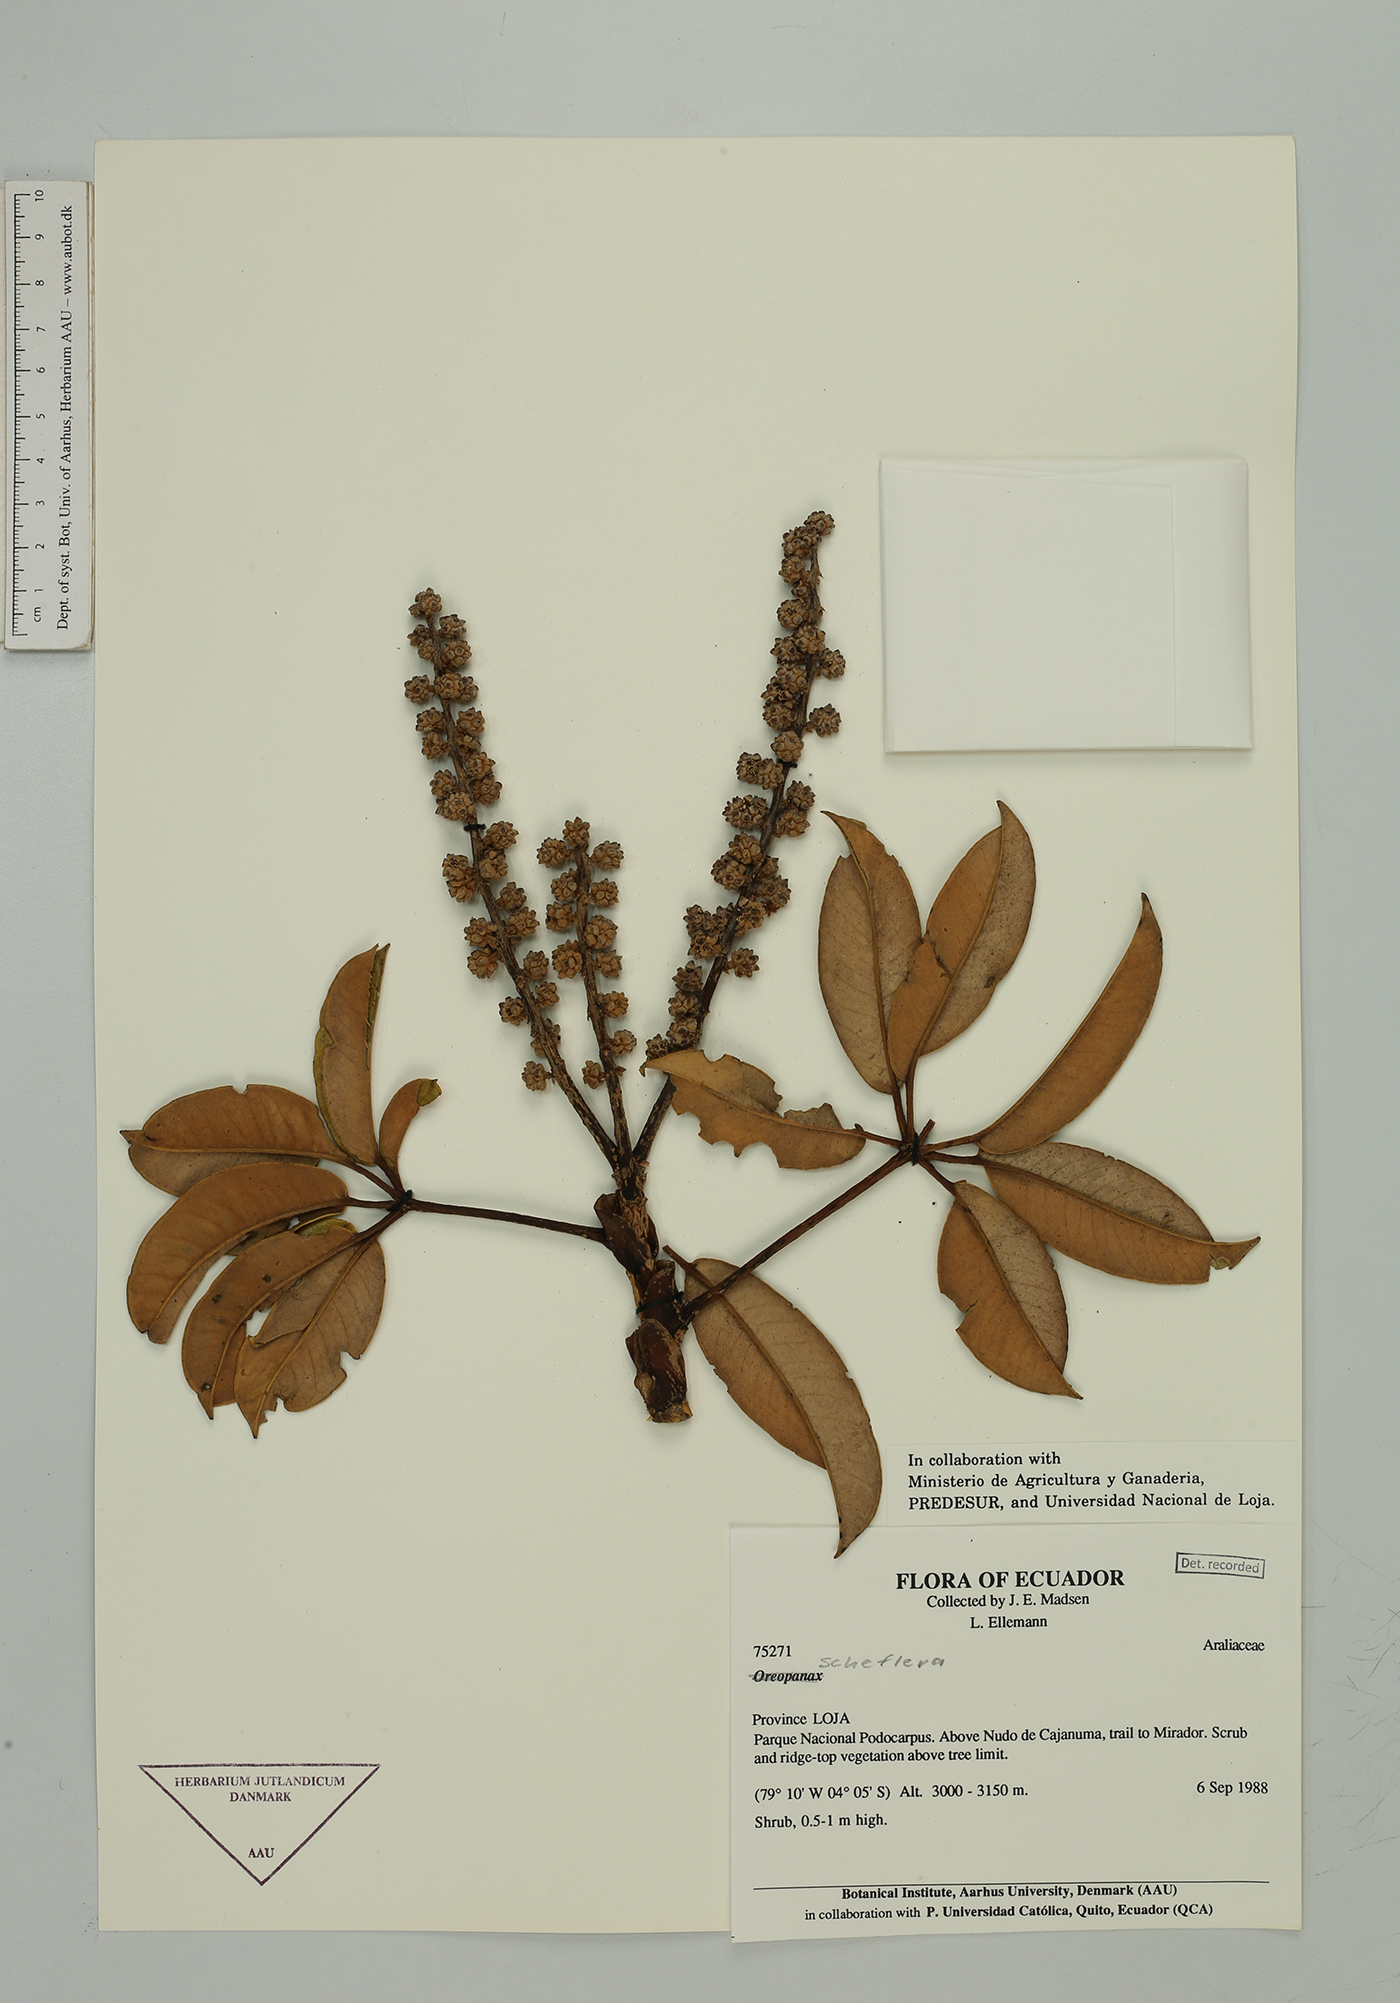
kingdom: Plantae
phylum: Tracheophyta
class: Magnoliopsida
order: Apiales
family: Araliaceae
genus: Sciodaphyllum
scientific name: Sciodaphyllum
